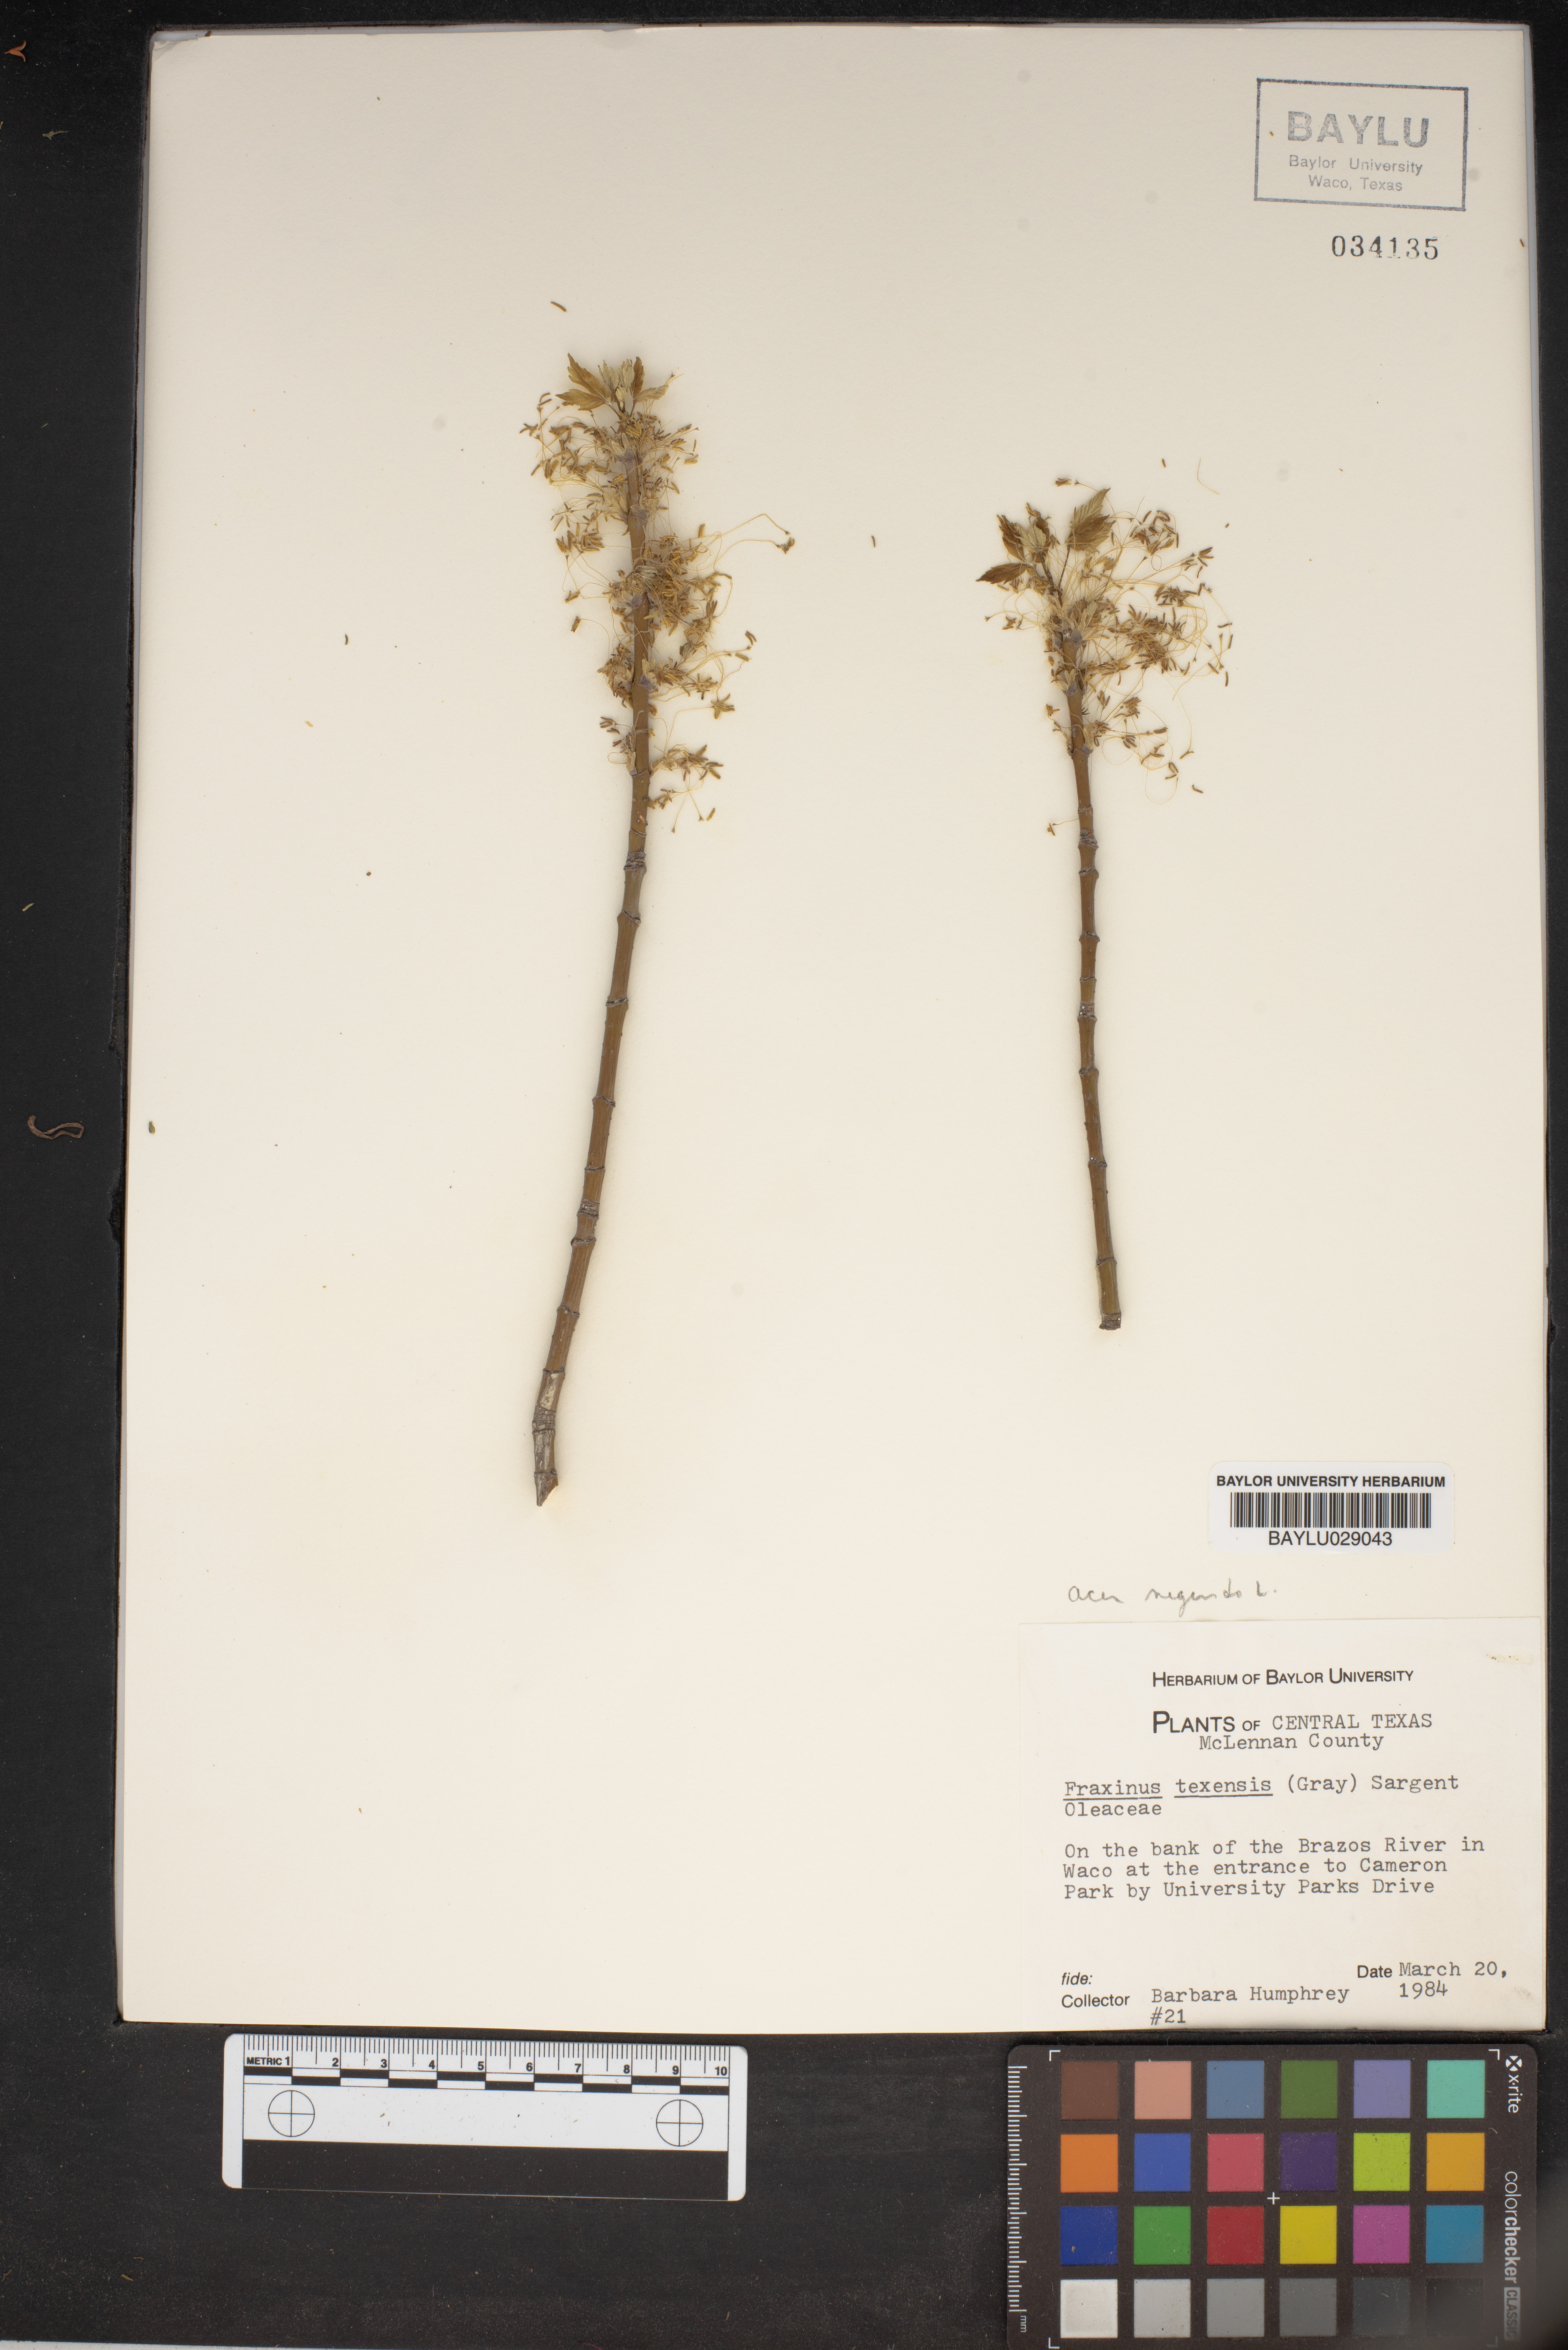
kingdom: Plantae
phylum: Tracheophyta
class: Magnoliopsida
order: Lamiales
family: Oleaceae
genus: Fraxinus
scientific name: Fraxinus albicans
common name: Texas ash
